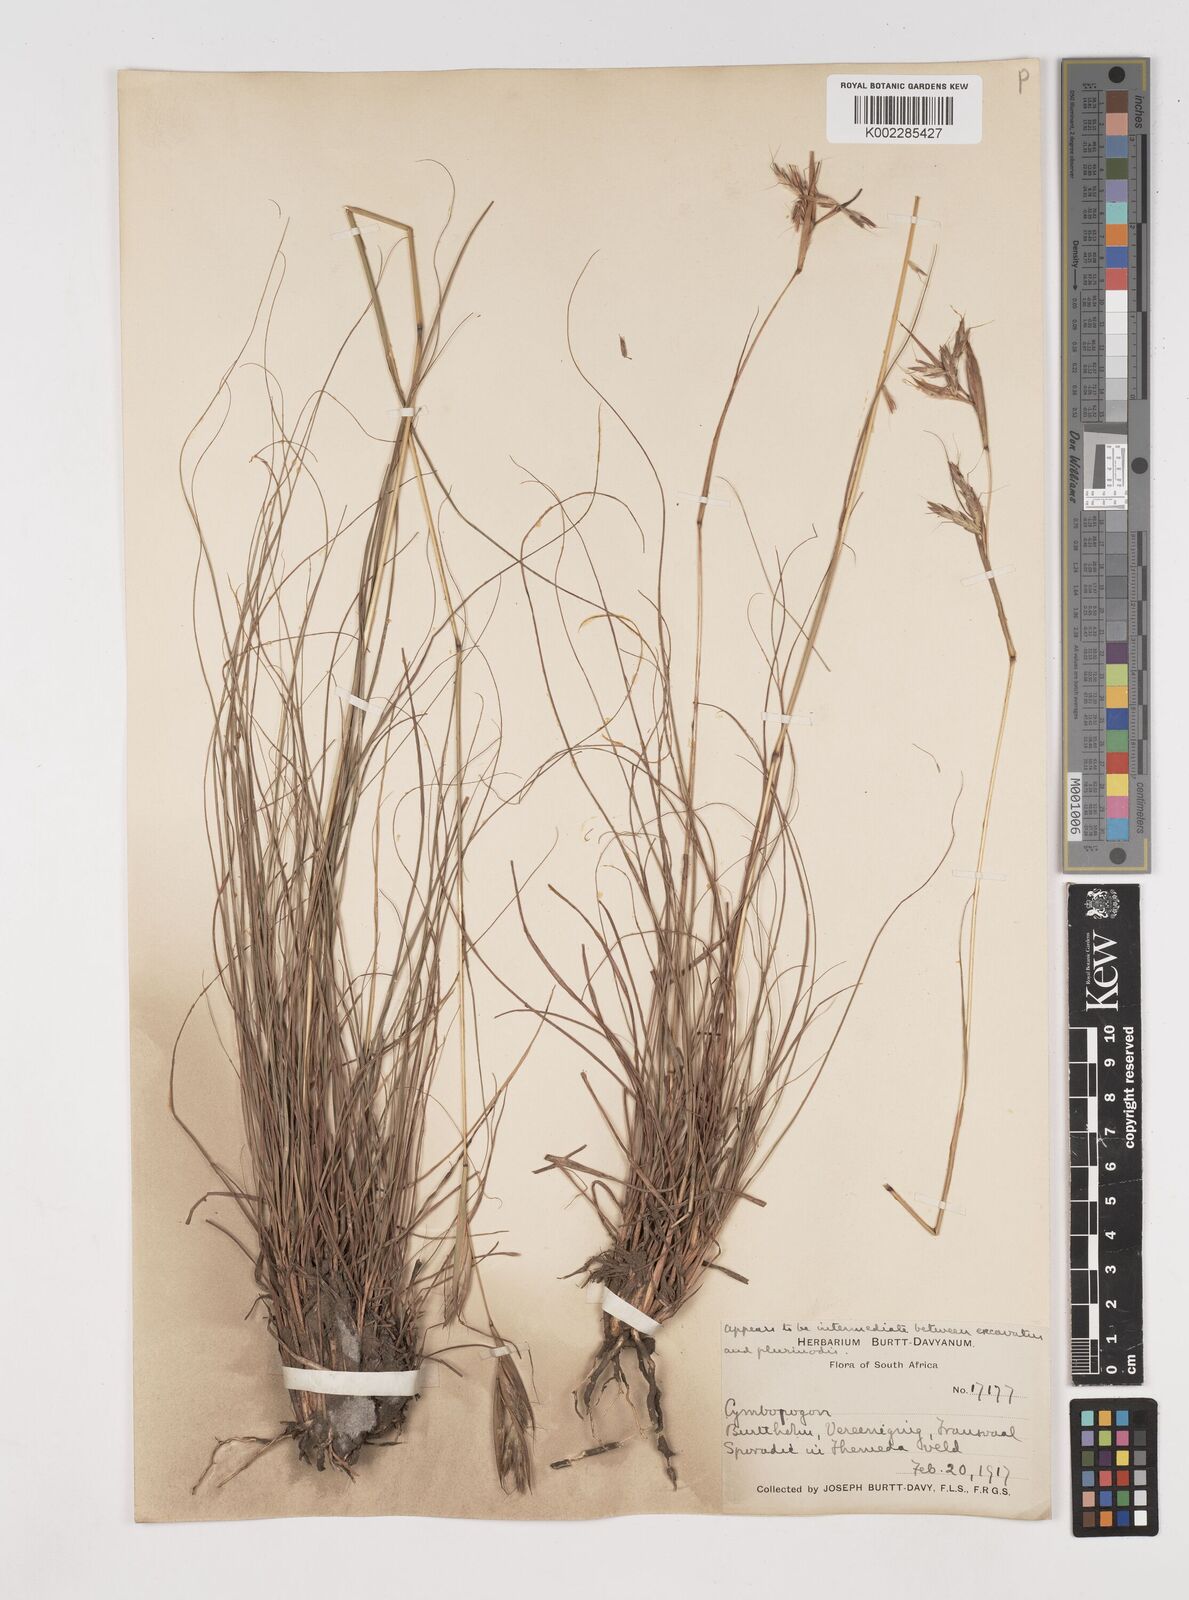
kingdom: Plantae
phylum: Tracheophyta
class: Liliopsida
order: Poales
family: Poaceae
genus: Cymbopogon
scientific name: Cymbopogon
